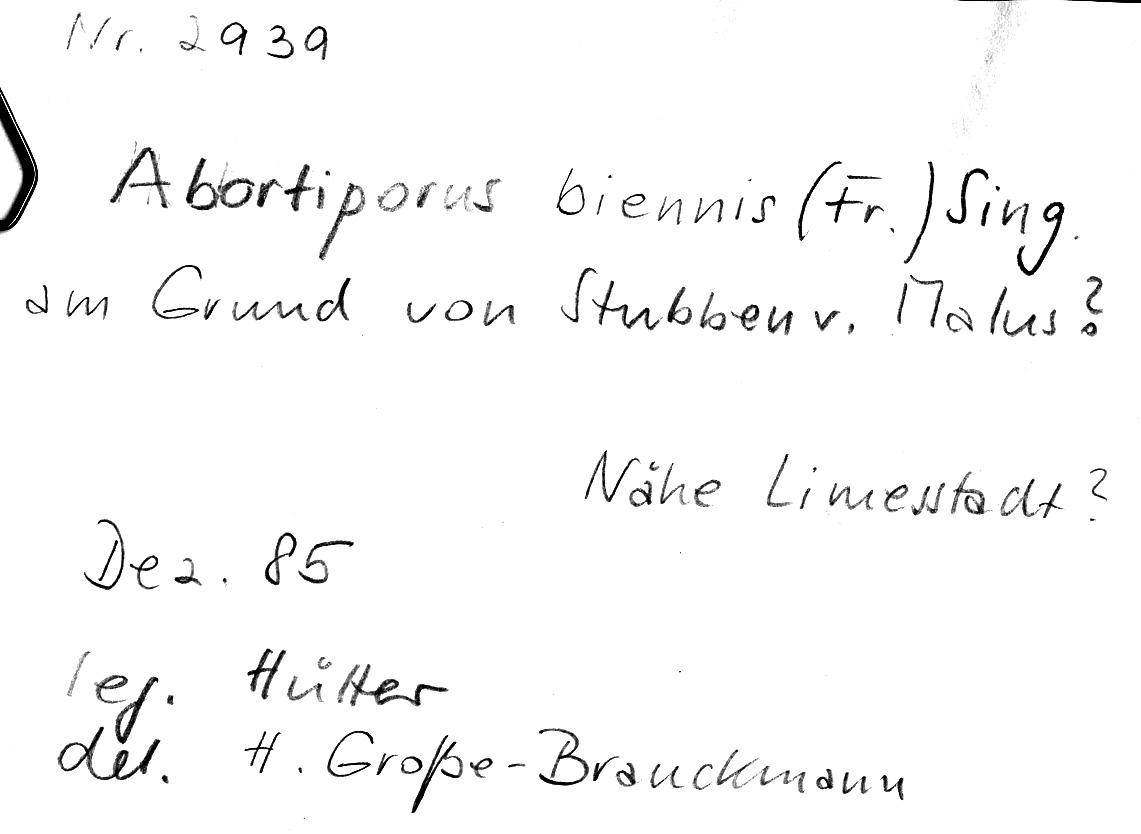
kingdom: Fungi
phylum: Basidiomycota
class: Agaricomycetes
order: Polyporales
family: Podoscyphaceae
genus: Abortiporus
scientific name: Abortiporus biennis
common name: Blushing rosette
